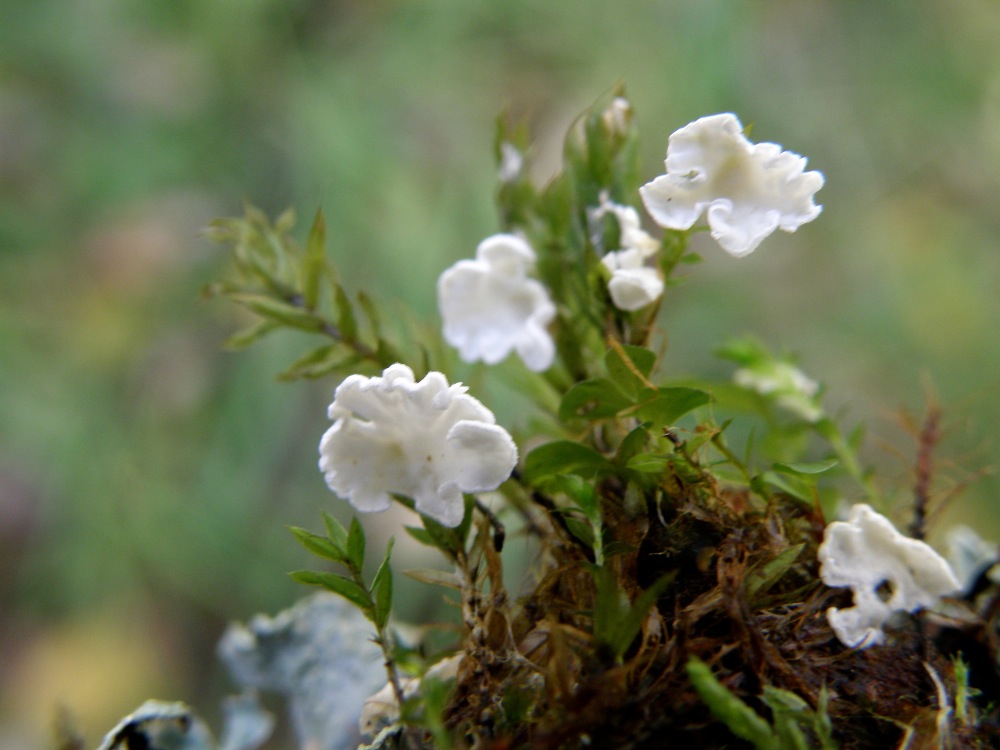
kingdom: Fungi
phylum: Basidiomycota
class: Agaricomycetes
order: Agaricales
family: Tricholomataceae
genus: Rimbachia
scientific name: Rimbachia arachnoidea
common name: Almindelig mosskål
